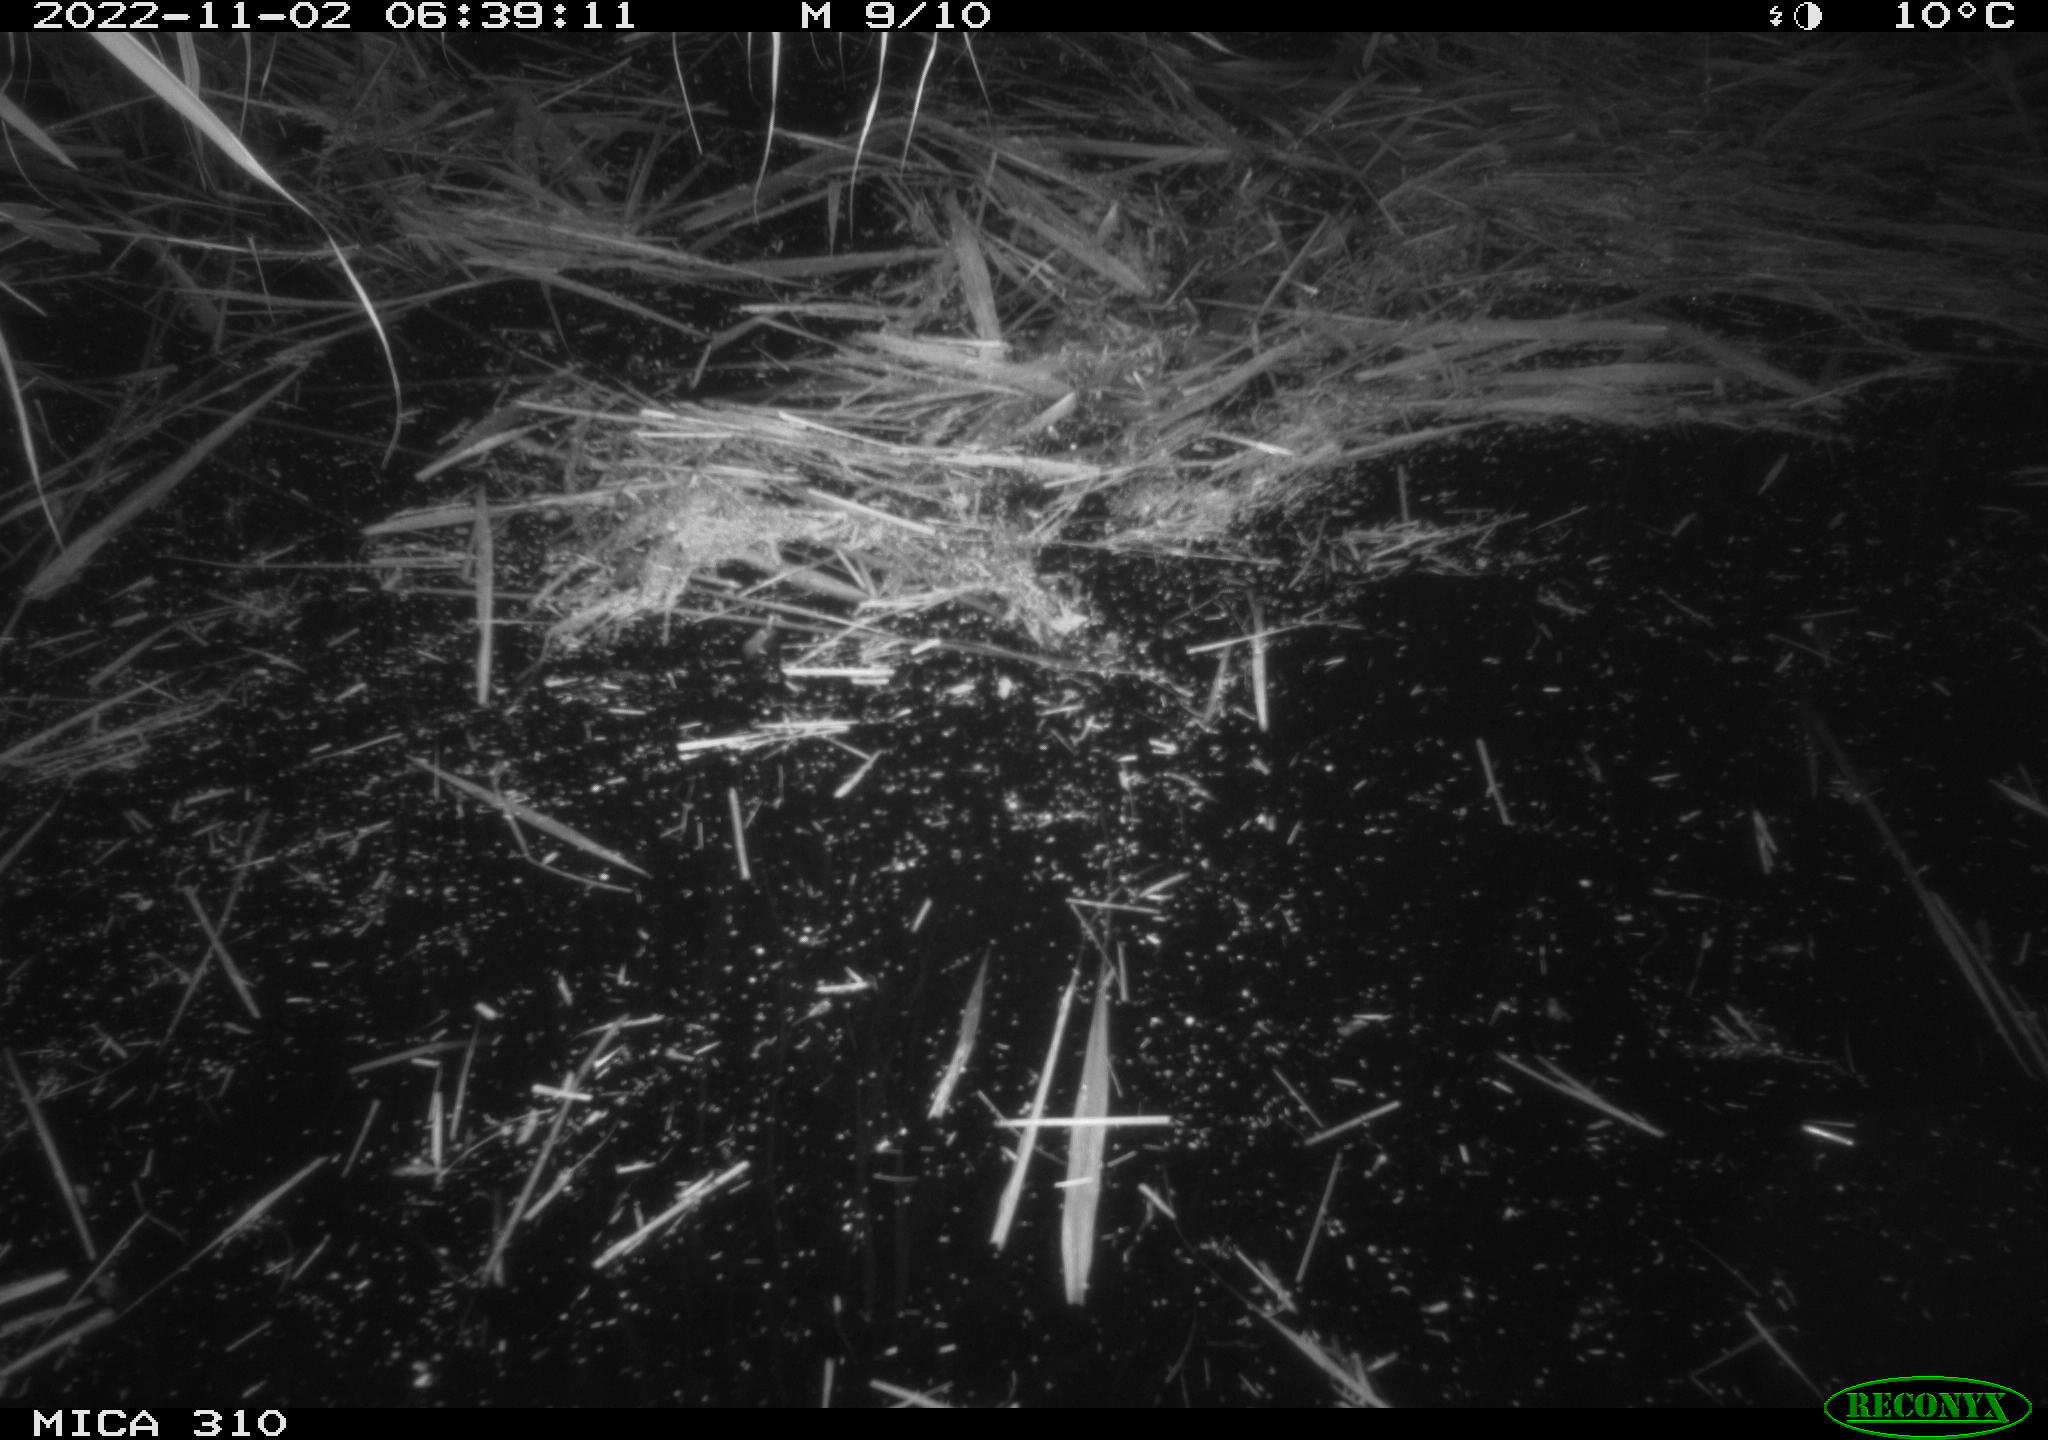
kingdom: Animalia
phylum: Chordata
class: Mammalia
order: Rodentia
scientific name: Rodentia
